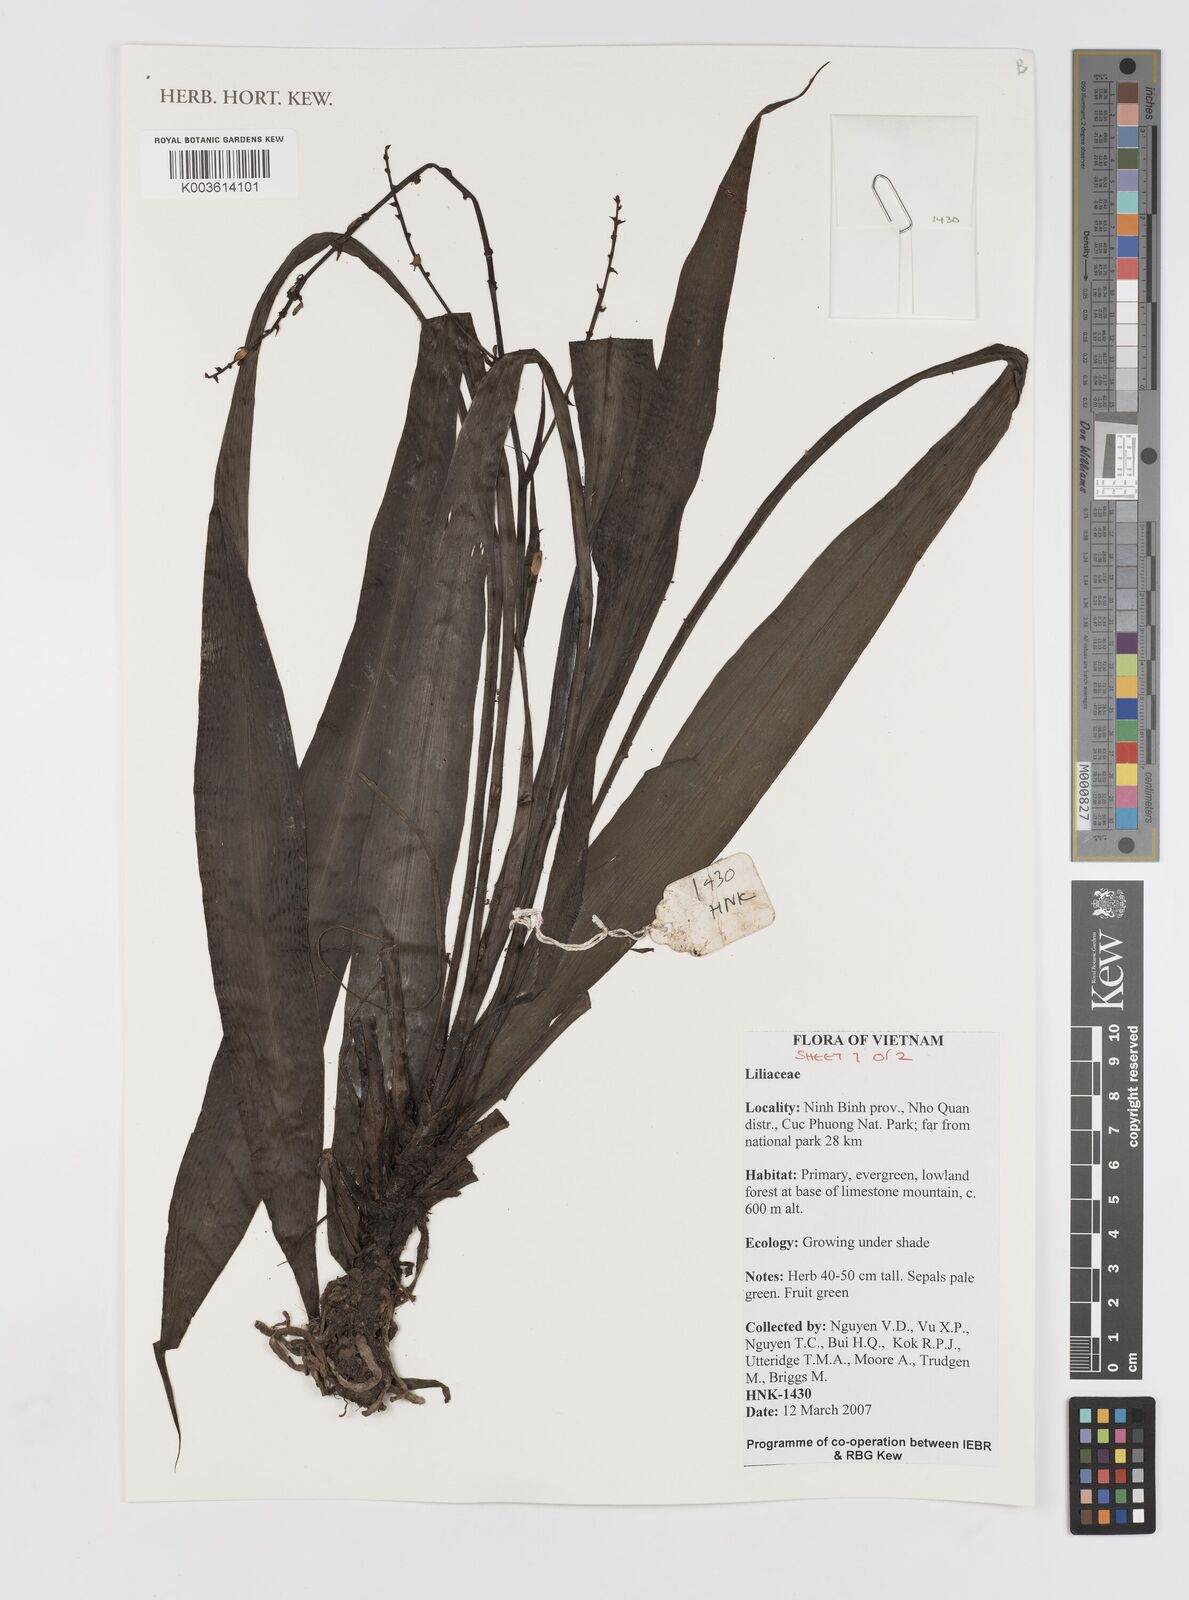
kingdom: Plantae
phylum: Tracheophyta
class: Liliopsida
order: Asparagales
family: Hypoxidaceae
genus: Curculigo
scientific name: Curculigo
